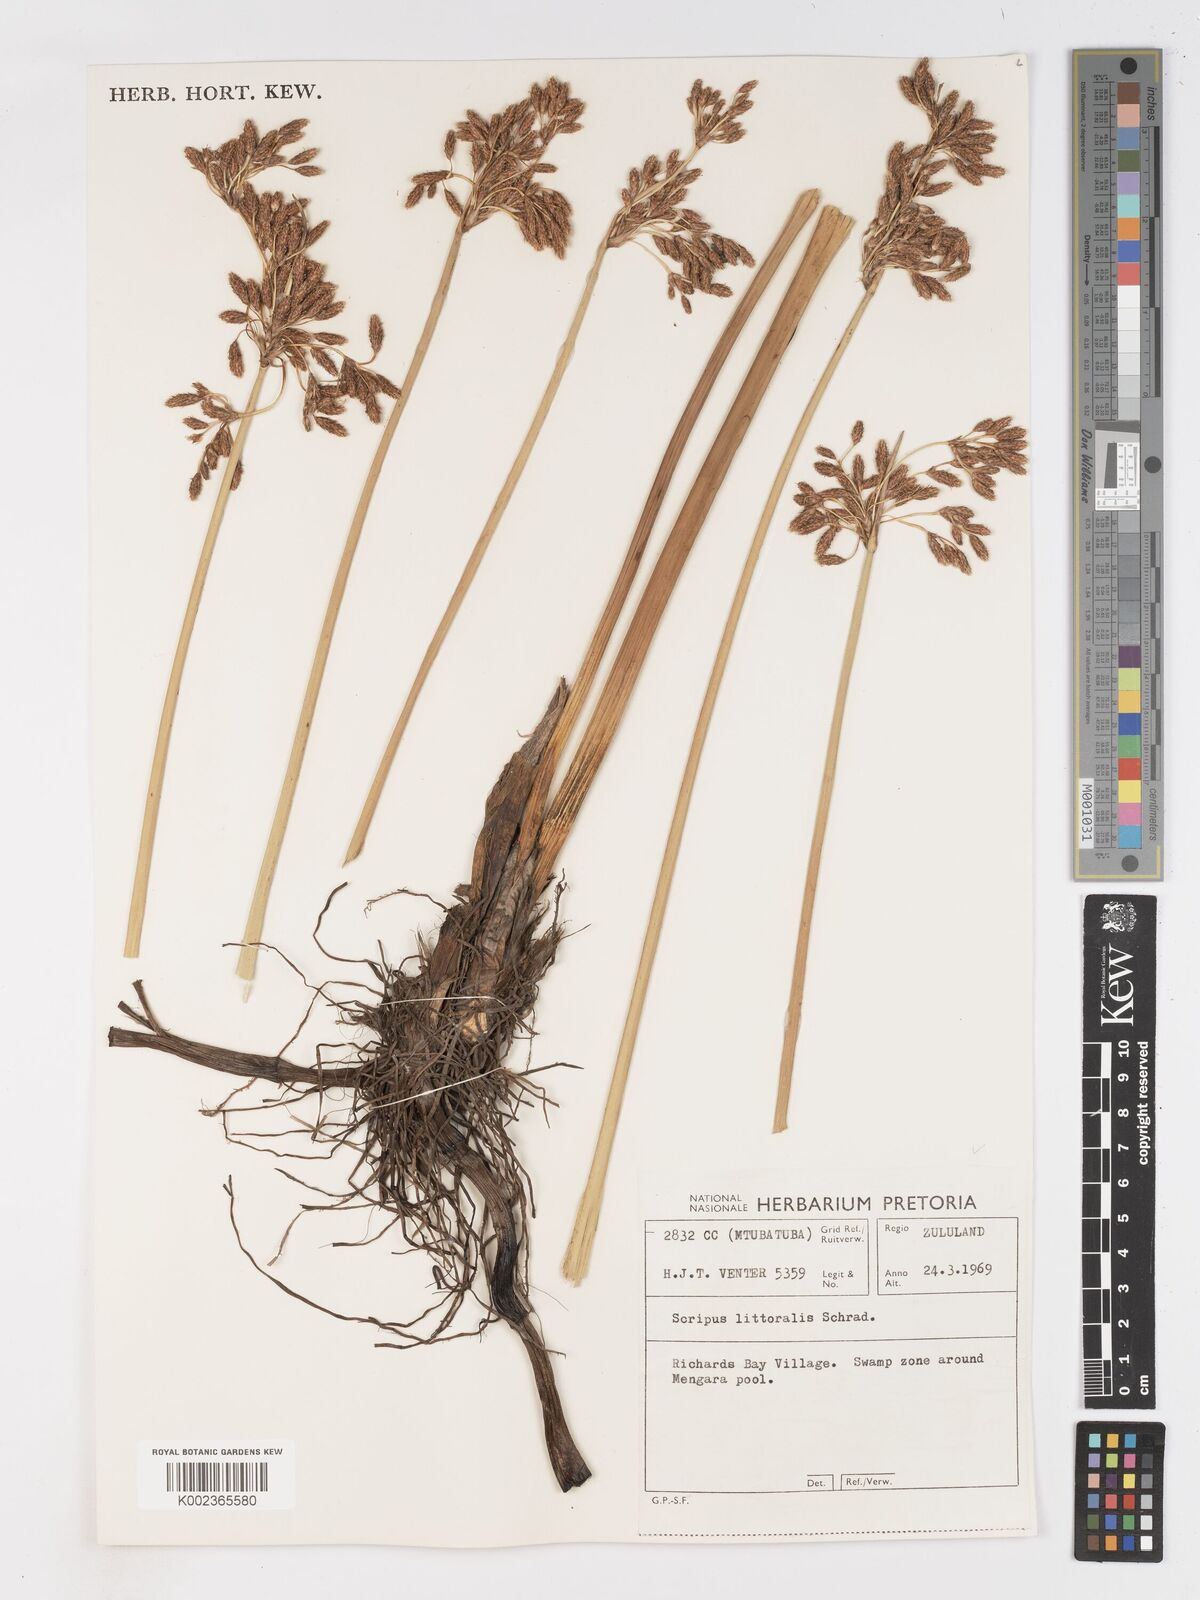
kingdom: Plantae
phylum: Tracheophyta
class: Liliopsida
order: Poales
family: Cyperaceae
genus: Schoenoplectus
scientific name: Schoenoplectus litoralis
